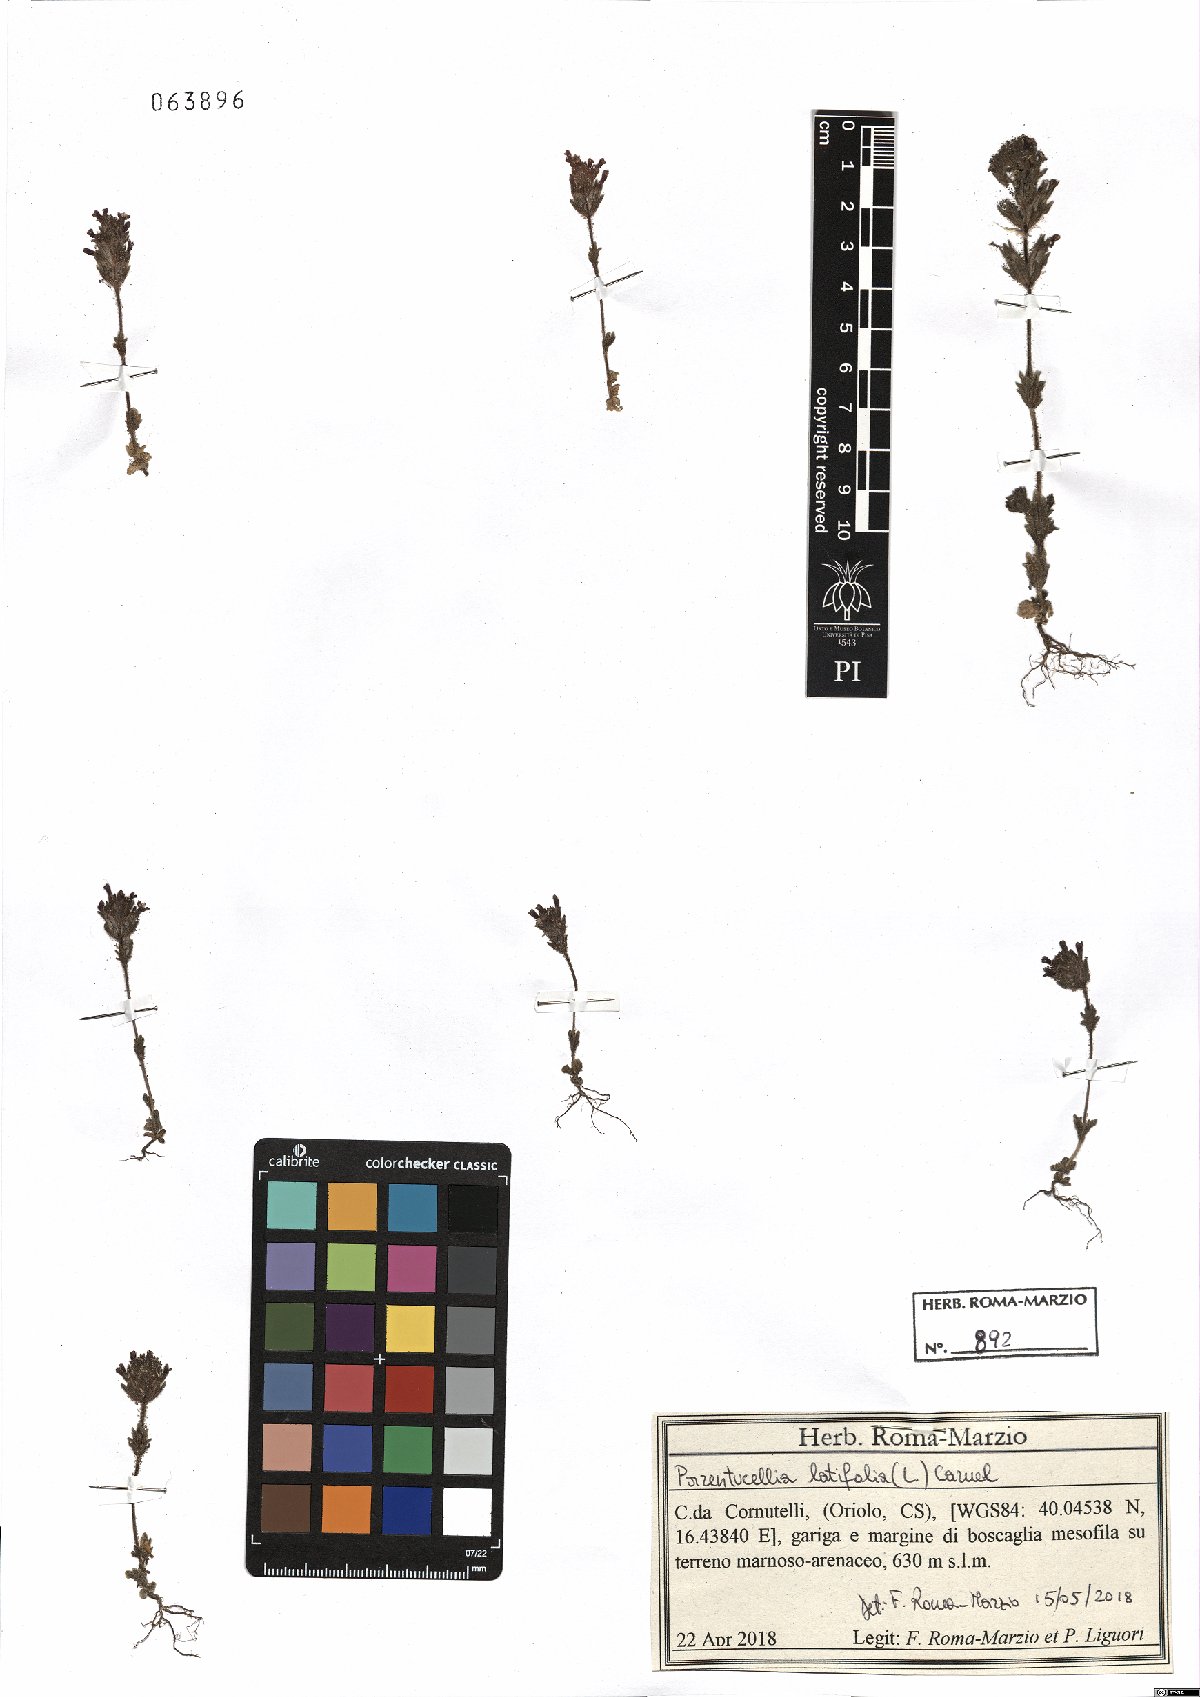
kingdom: Plantae
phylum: Tracheophyta
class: Magnoliopsida
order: Lamiales
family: Orobanchaceae
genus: Parentucellia
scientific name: Parentucellia latifolia
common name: Broadleaf glandweed
